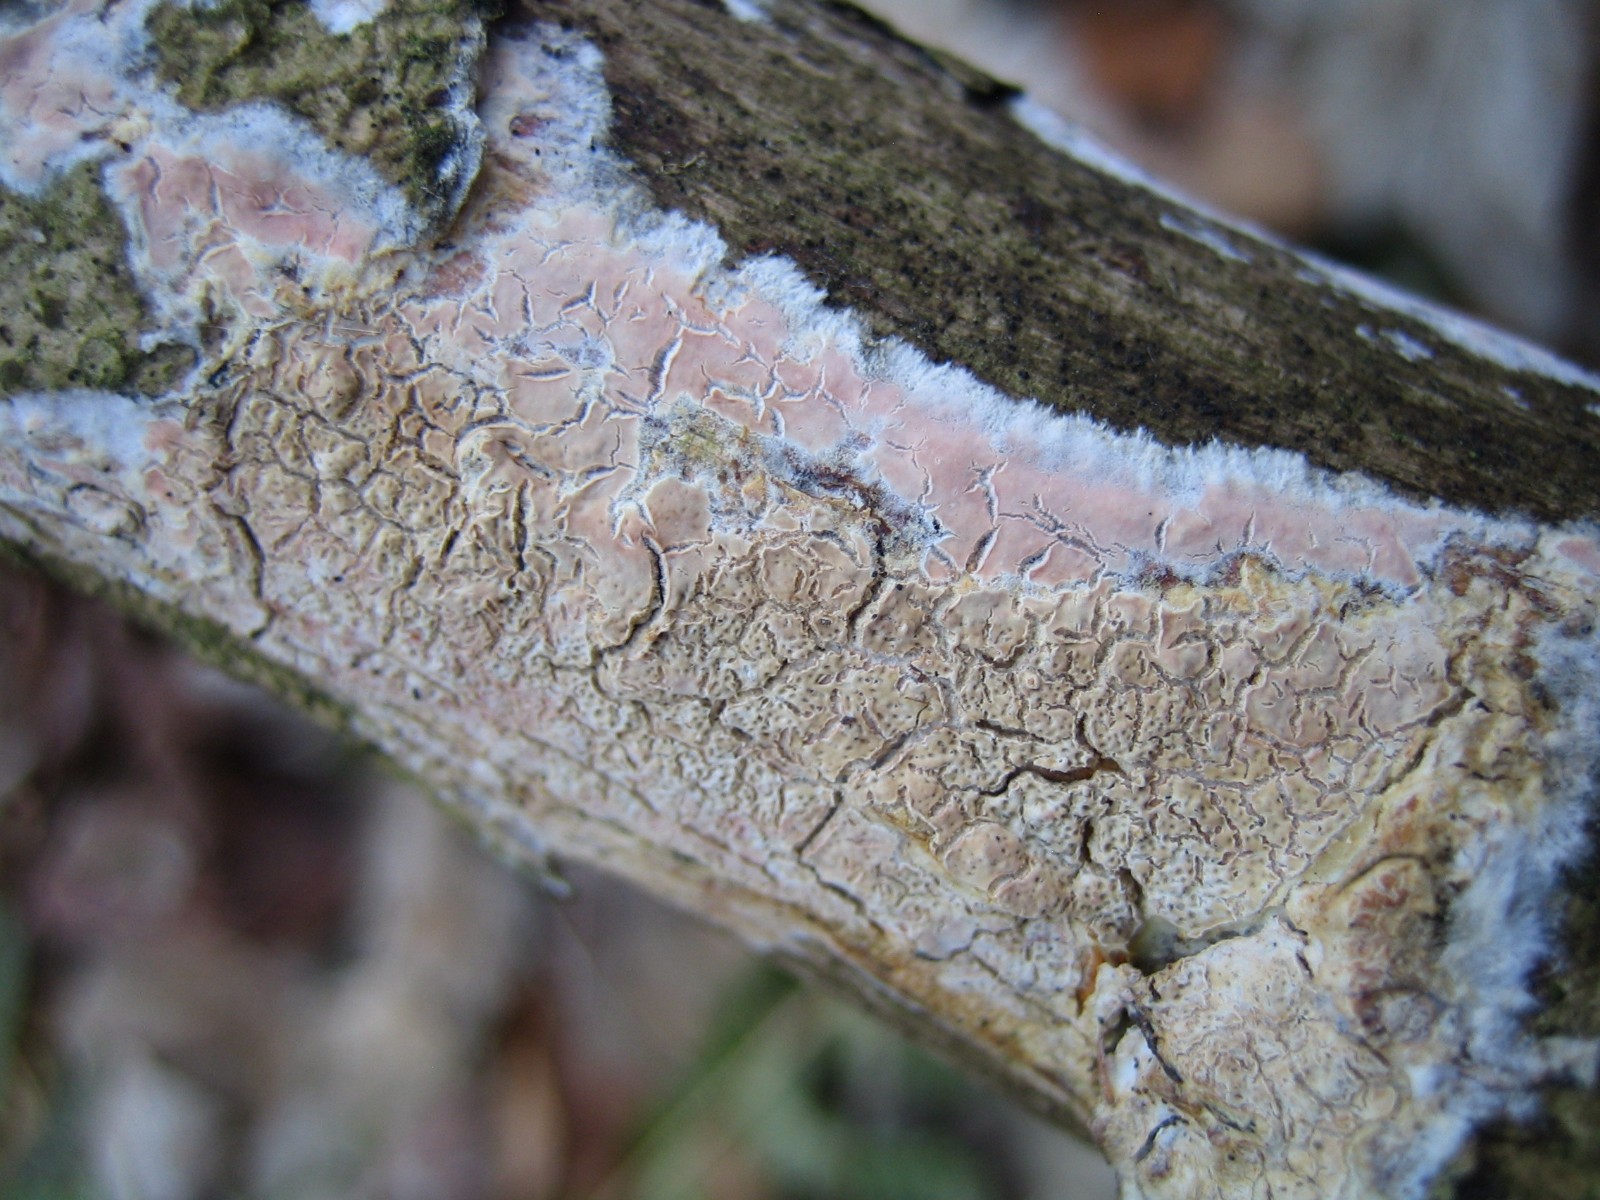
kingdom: Fungi
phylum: Basidiomycota
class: Agaricomycetes
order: Corticiales
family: Corticiaceae
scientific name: Corticiaceae
